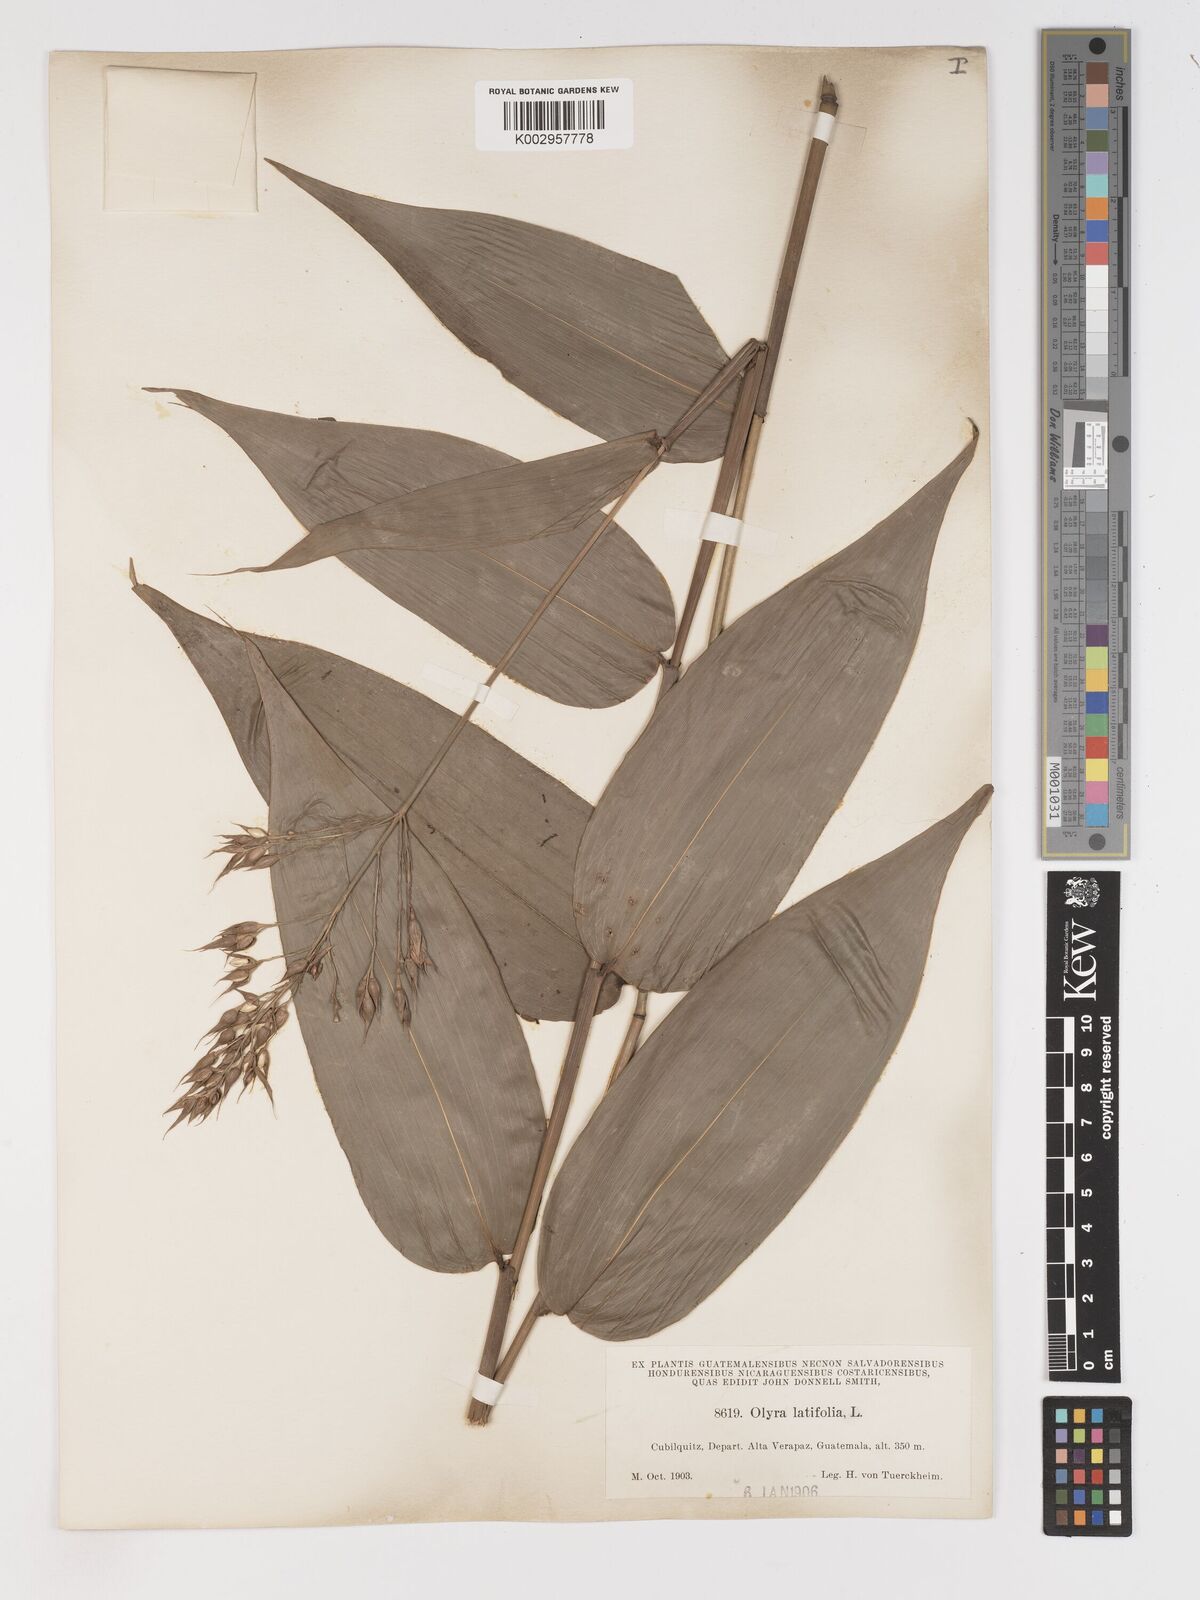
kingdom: Plantae
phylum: Tracheophyta
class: Liliopsida
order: Poales
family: Poaceae
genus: Olyra
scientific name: Olyra latifolia
